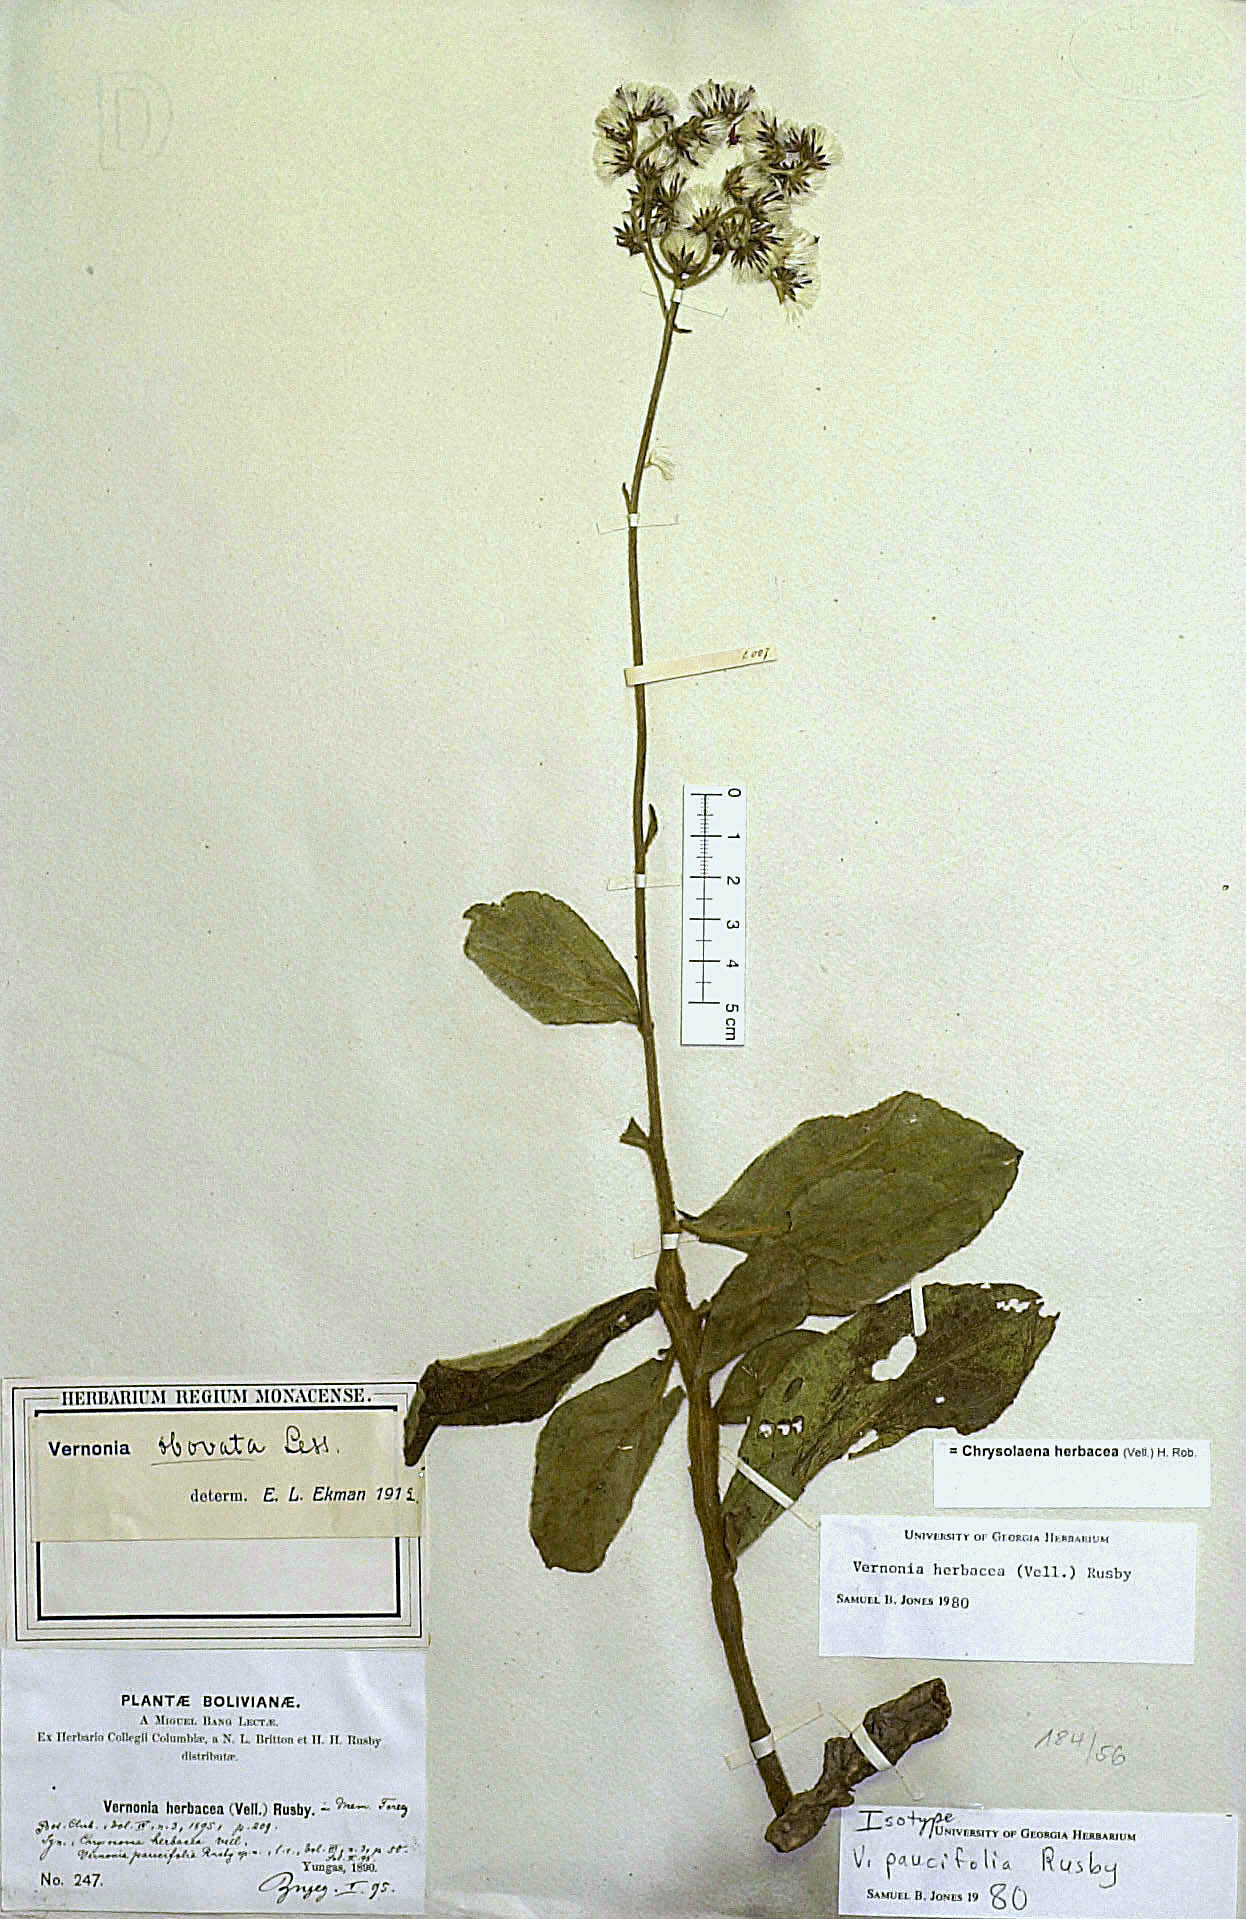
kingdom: Plantae
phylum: Tracheophyta
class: Magnoliopsida
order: Asterales
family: Asteraceae
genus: Chrysolaena
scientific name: Chrysolaena obovata
